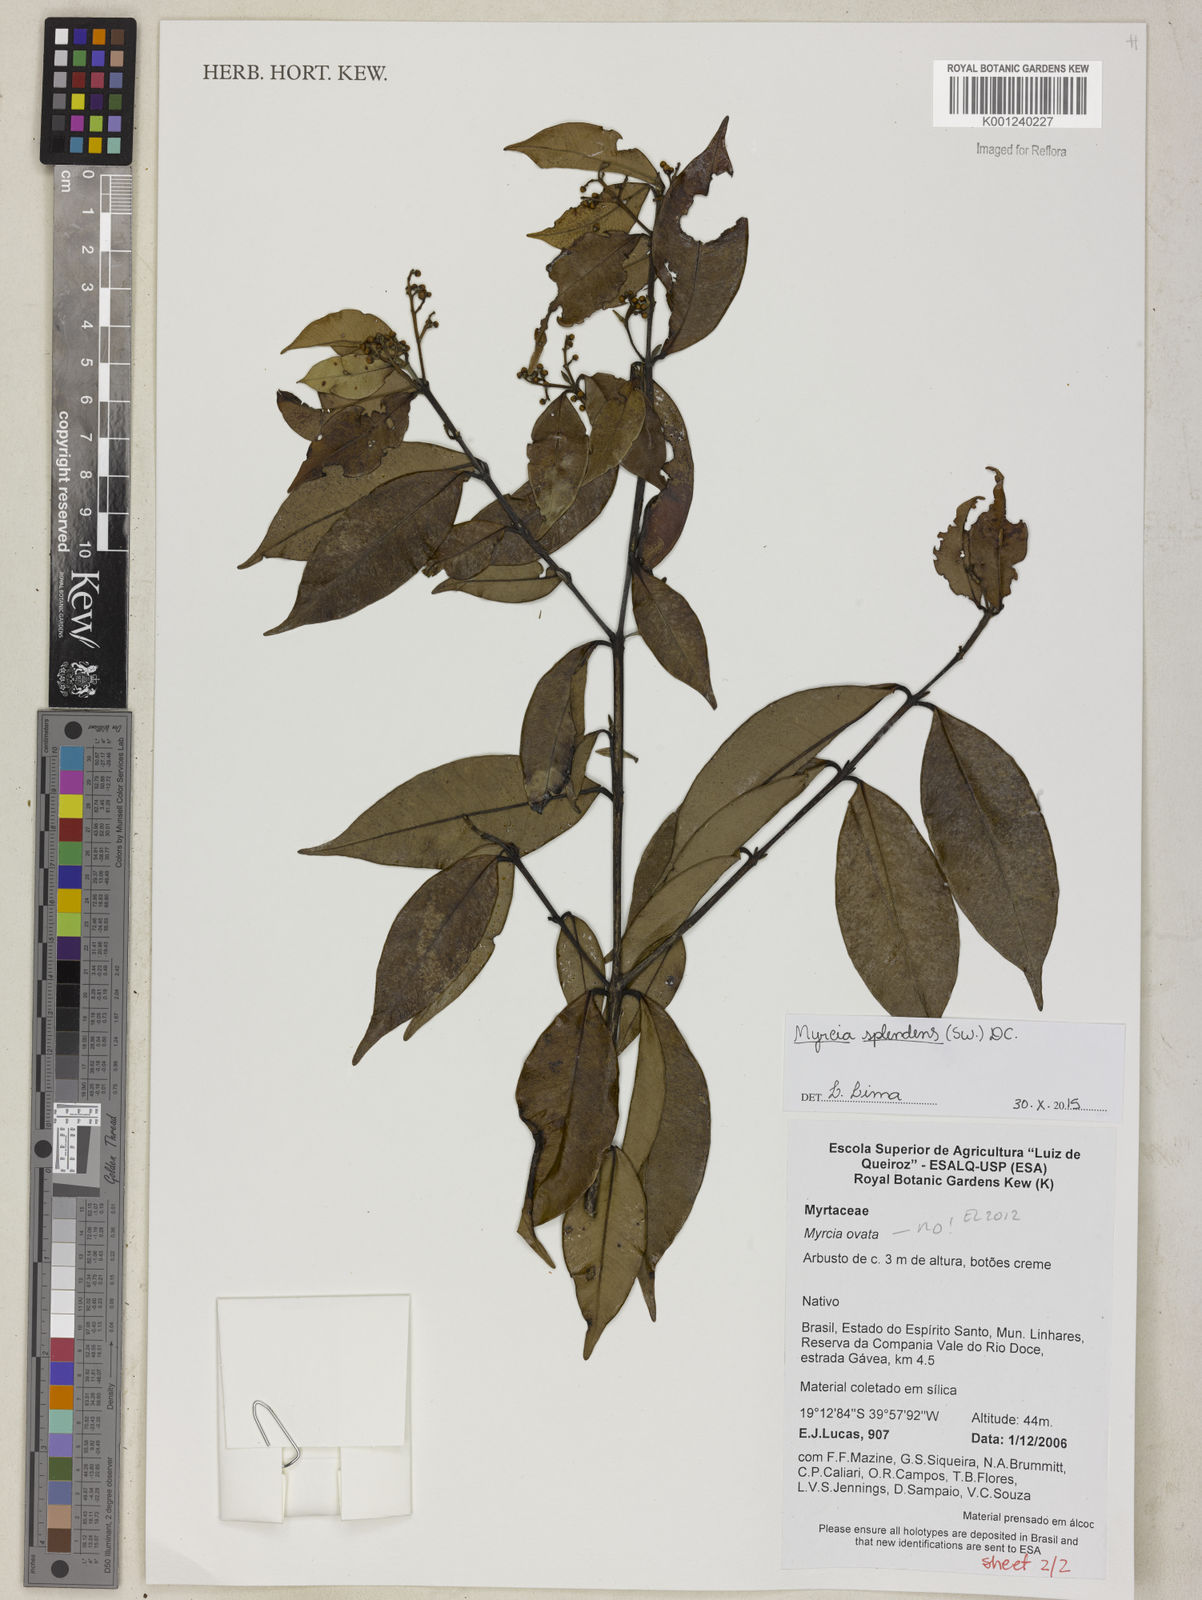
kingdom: Plantae
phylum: Tracheophyta
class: Magnoliopsida
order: Myrtales
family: Myrtaceae
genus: Myrcia
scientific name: Myrcia splendens
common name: Surinam cherry
